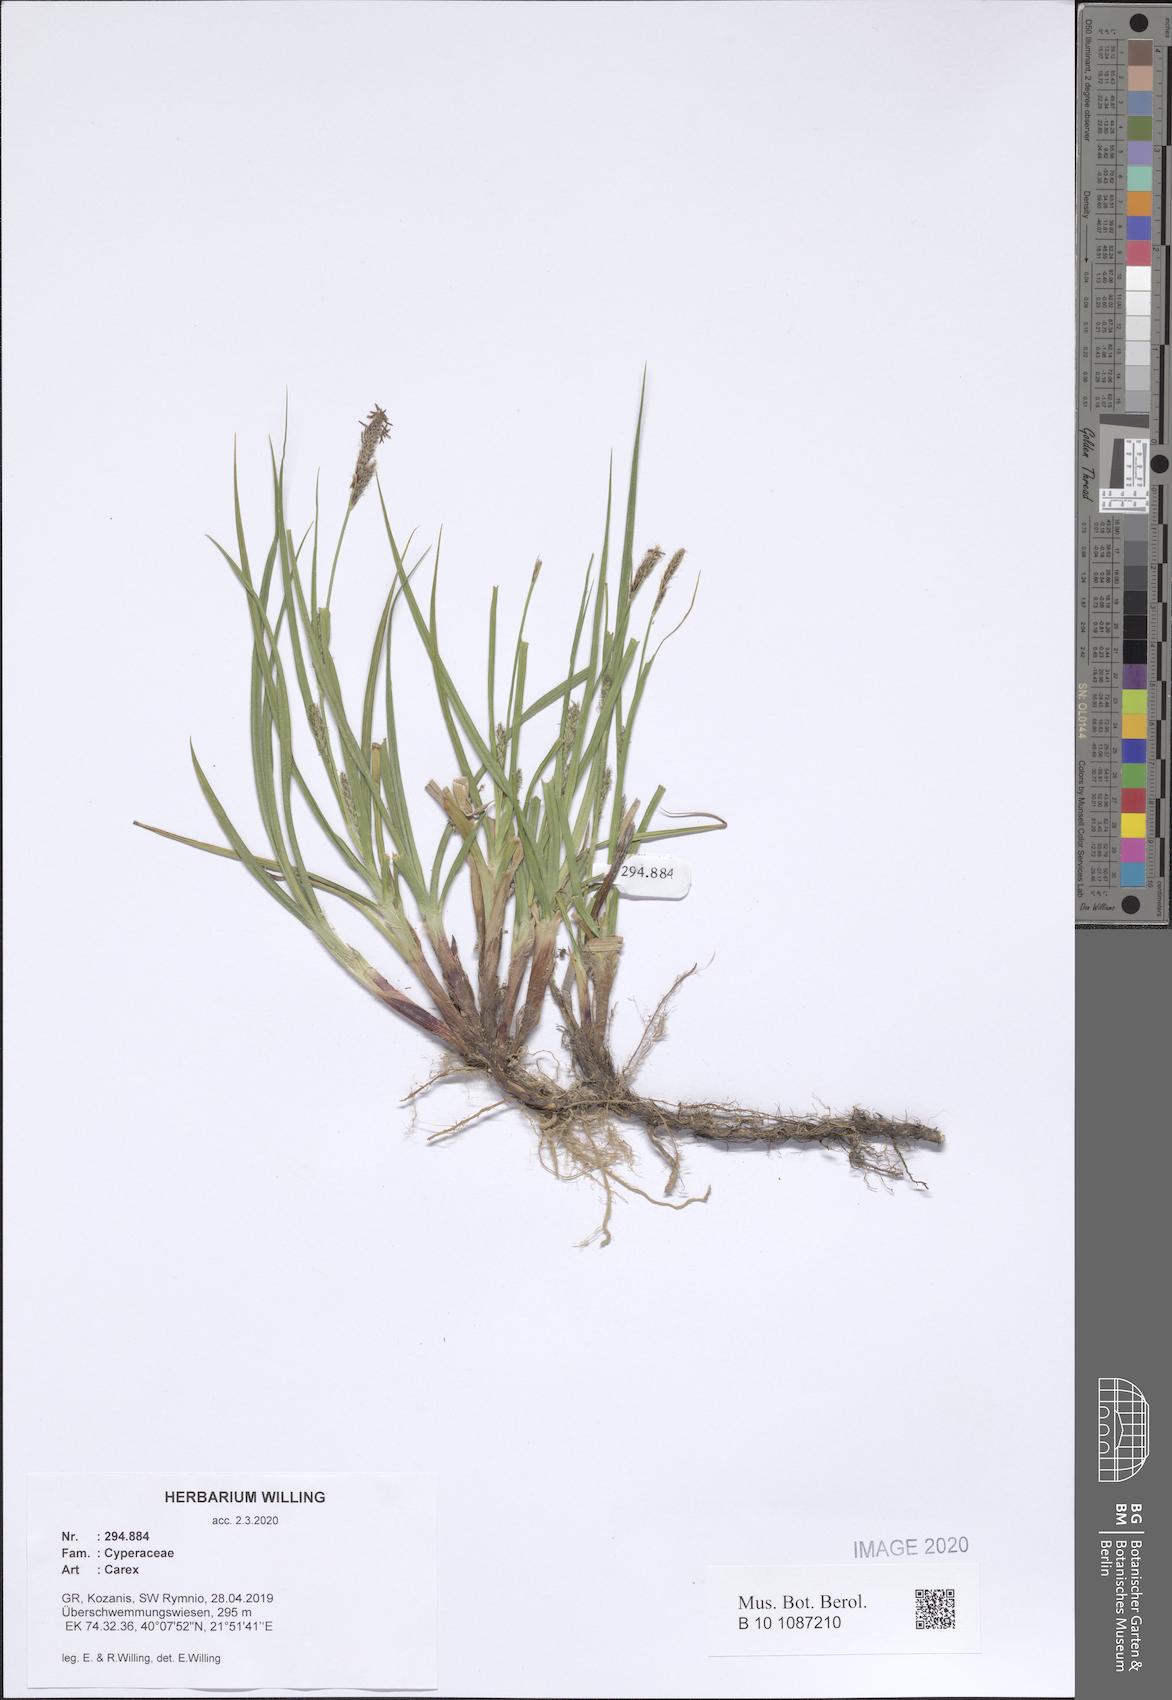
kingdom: Plantae
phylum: Tracheophyta
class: Liliopsida
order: Poales
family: Cyperaceae
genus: Carex
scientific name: Carex
